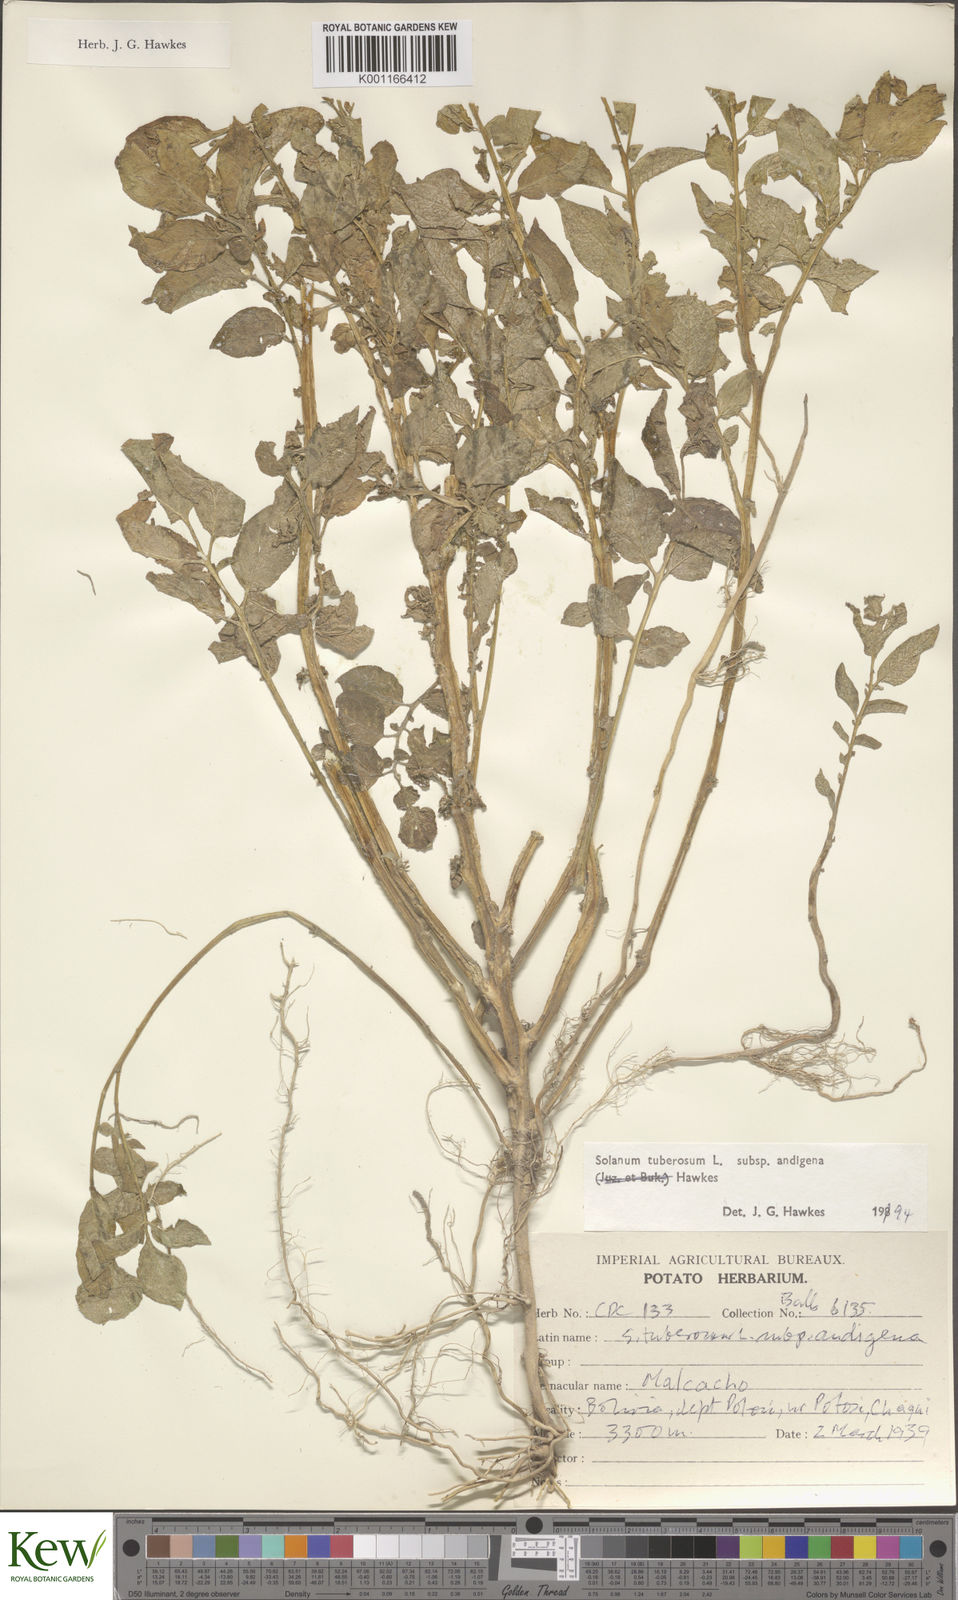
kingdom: Plantae
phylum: Tracheophyta
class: Magnoliopsida
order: Solanales
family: Solanaceae
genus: Solanum
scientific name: Solanum tuberosum
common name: Potato
